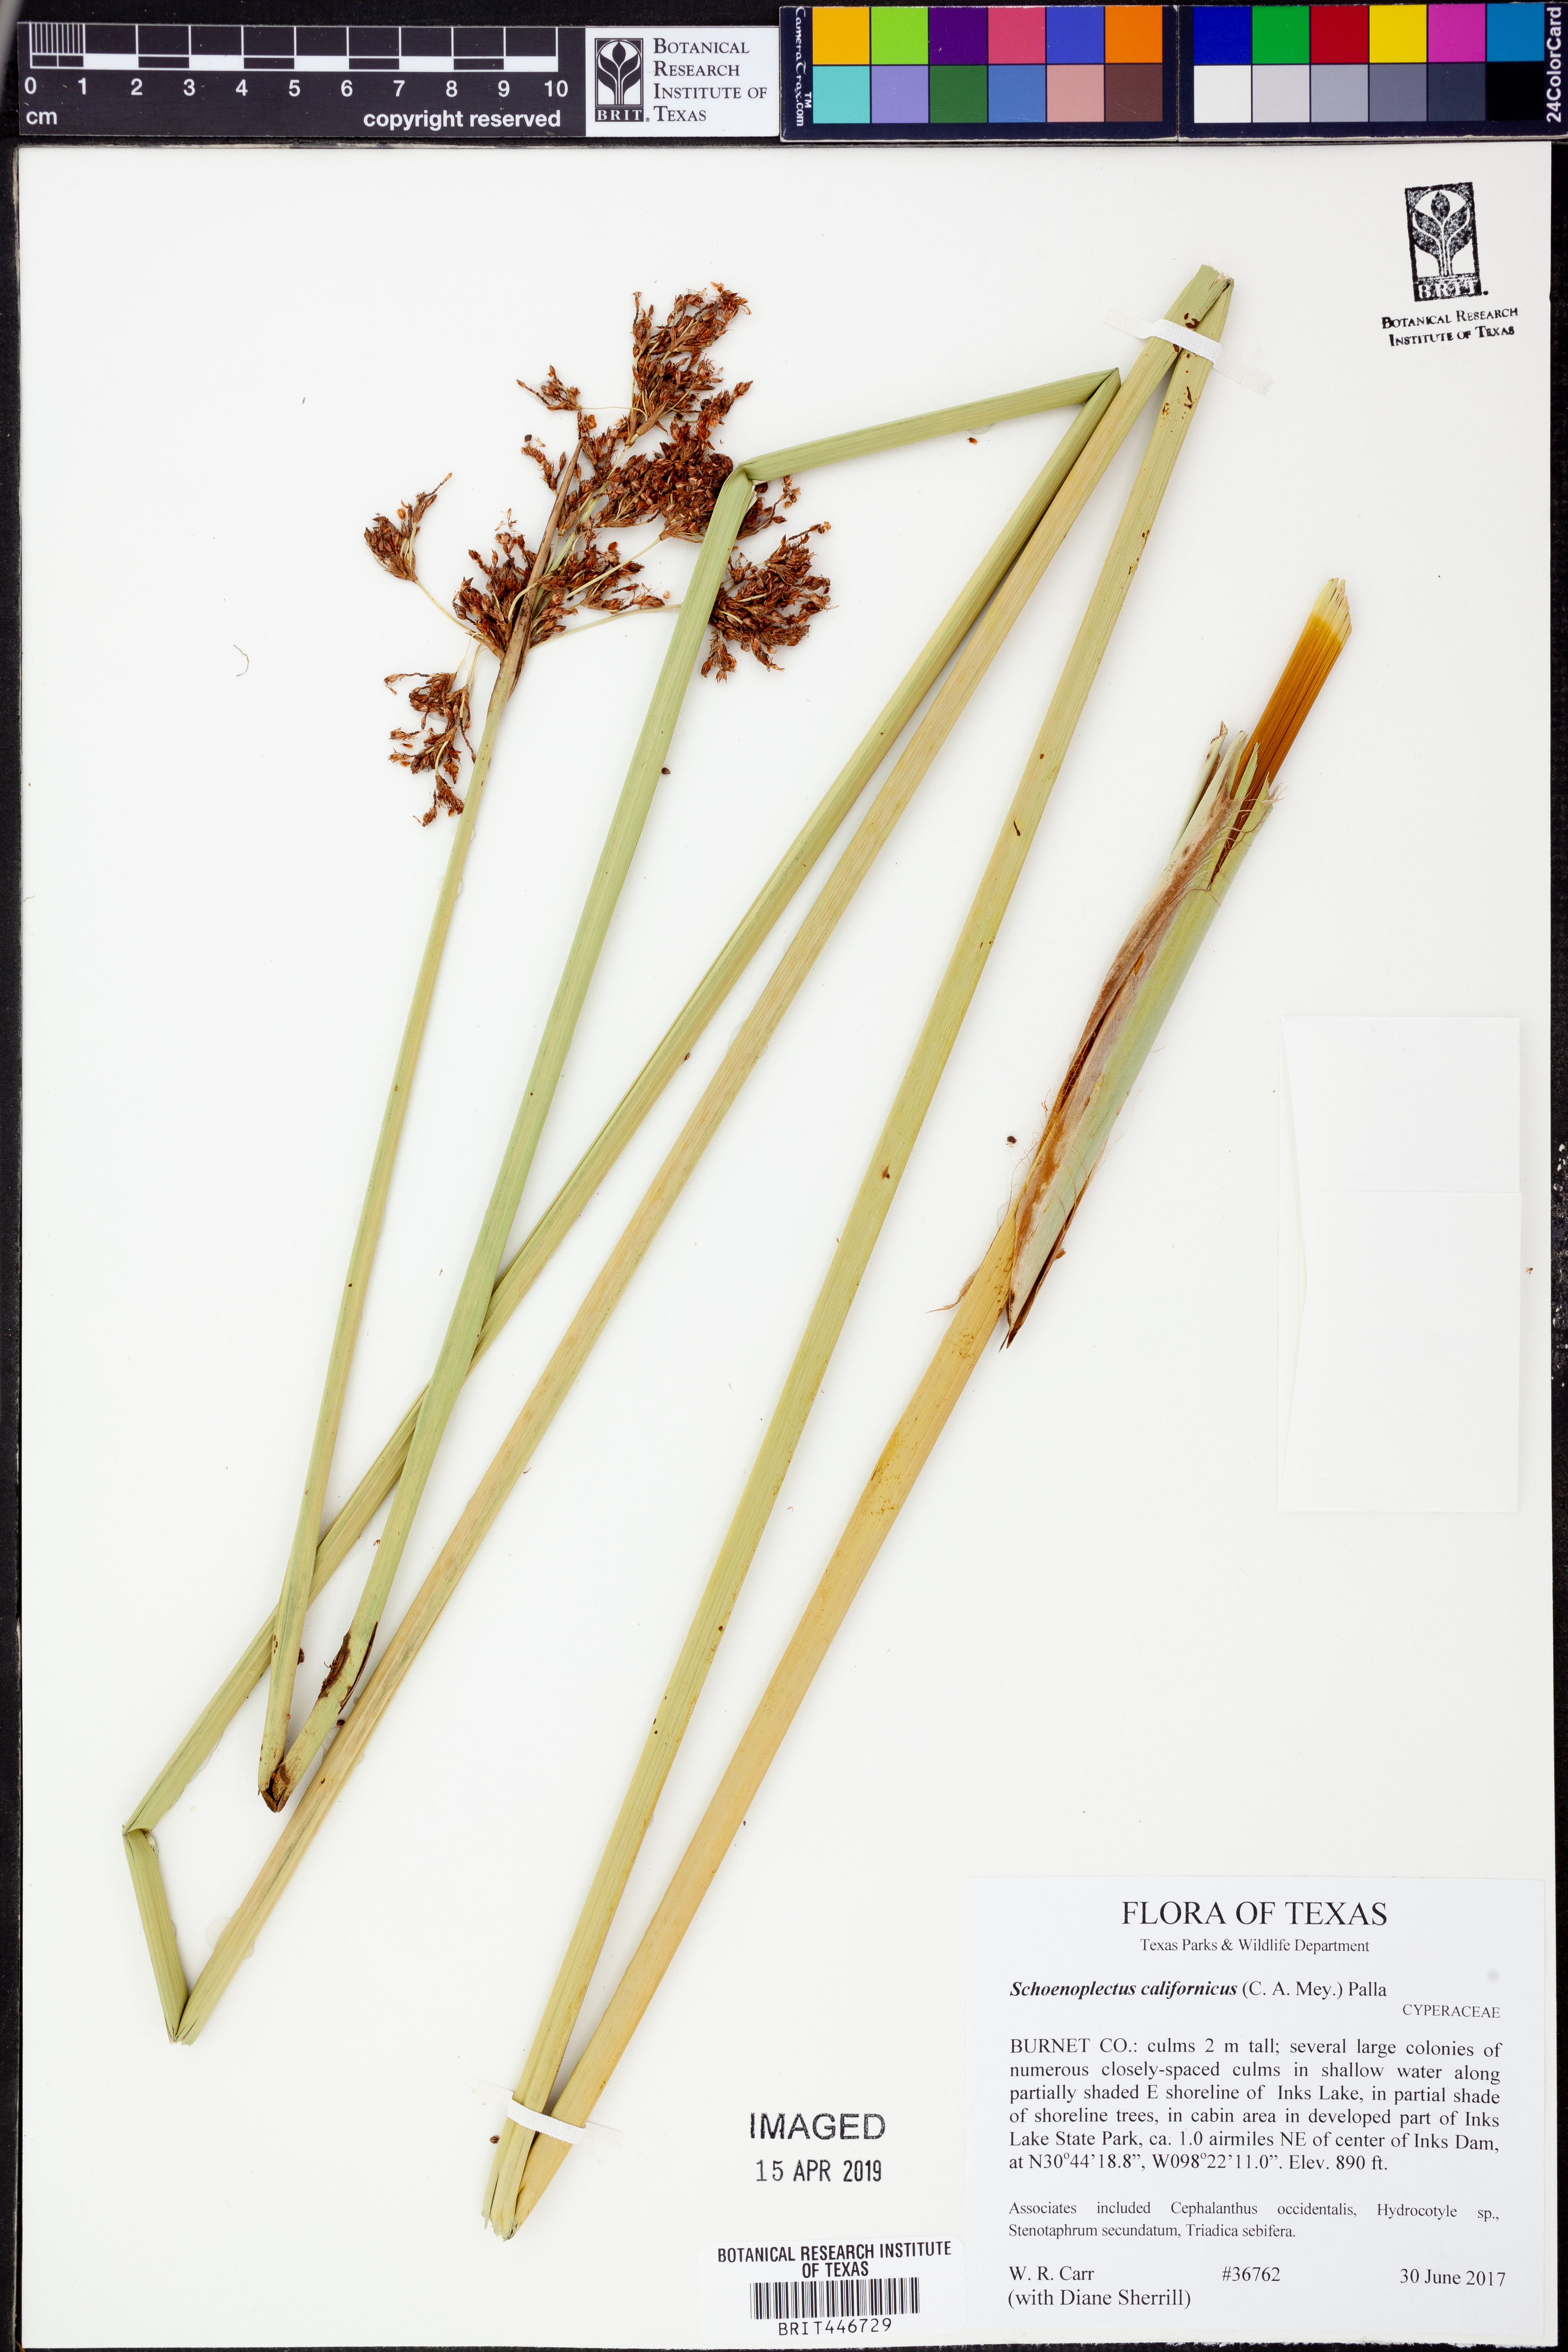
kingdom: Plantae
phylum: Tracheophyta
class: Liliopsida
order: Poales
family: Cyperaceae
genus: Schoenoplectus
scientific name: Schoenoplectus californicus
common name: California bulrush
